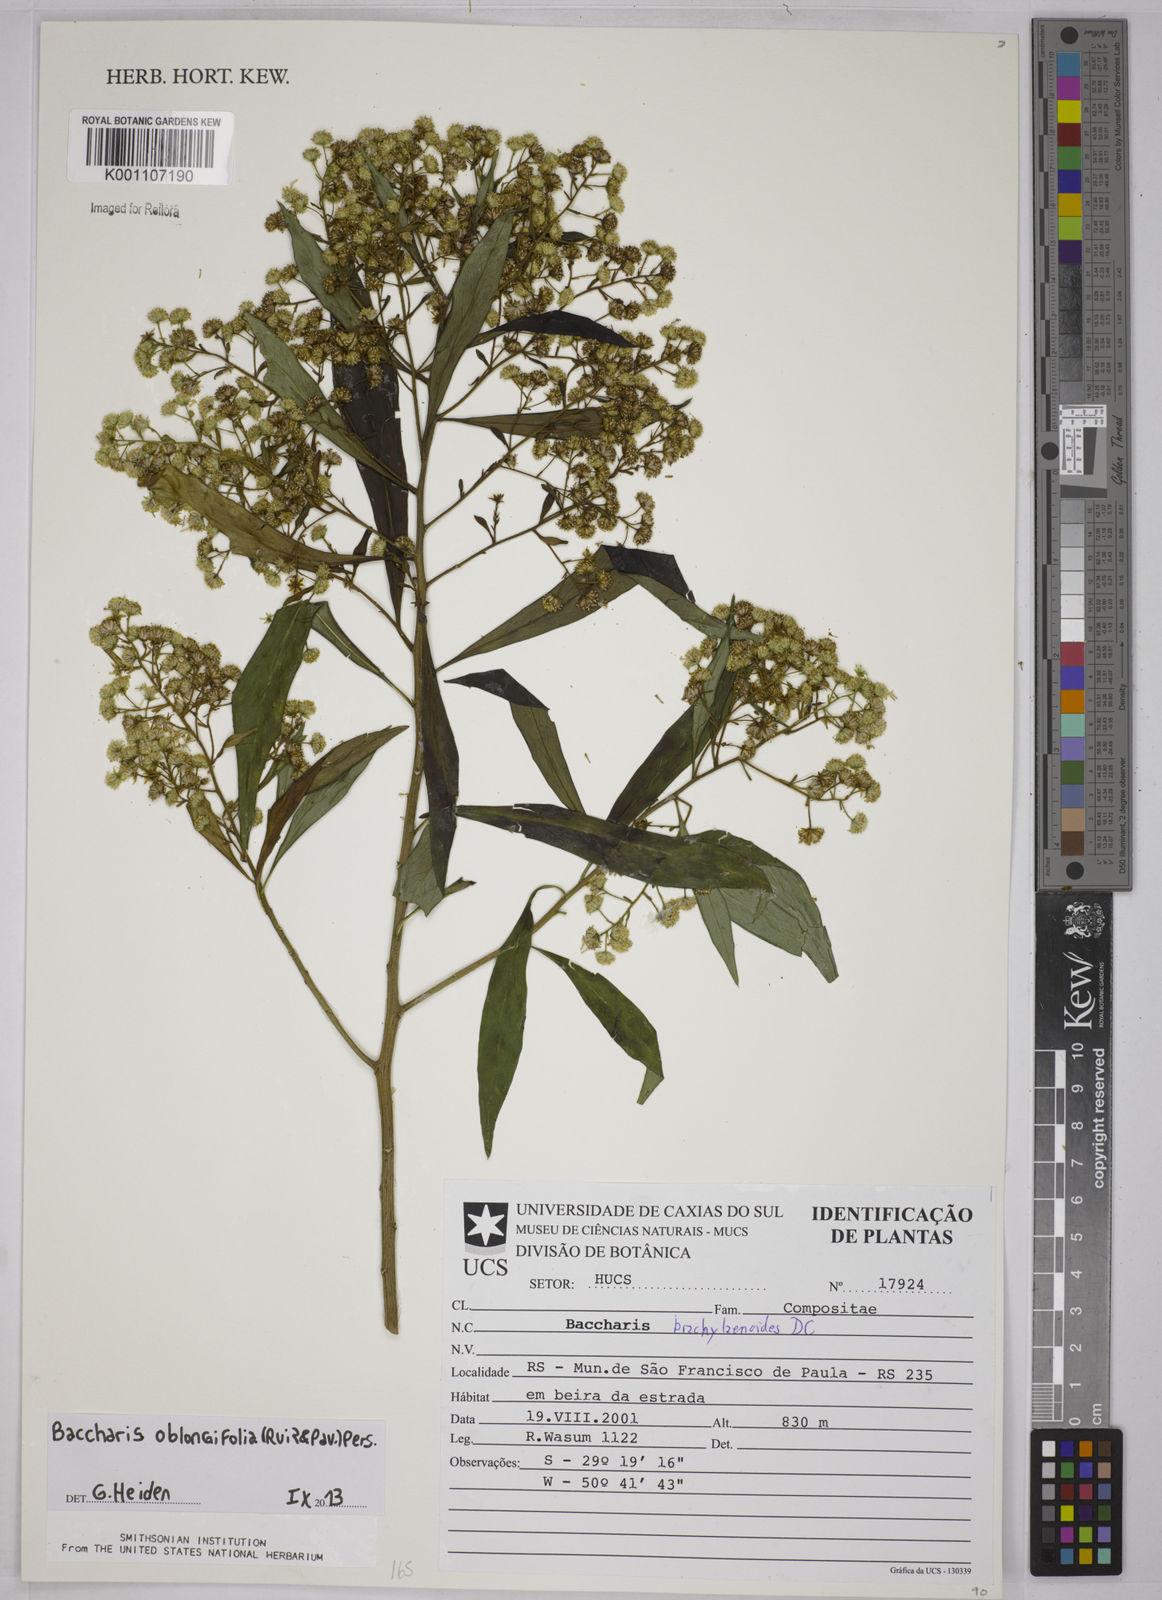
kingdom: Plantae
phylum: Tracheophyta
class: Magnoliopsida
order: Asterales
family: Asteraceae
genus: Baccharis
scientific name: Baccharis oblongifolia
